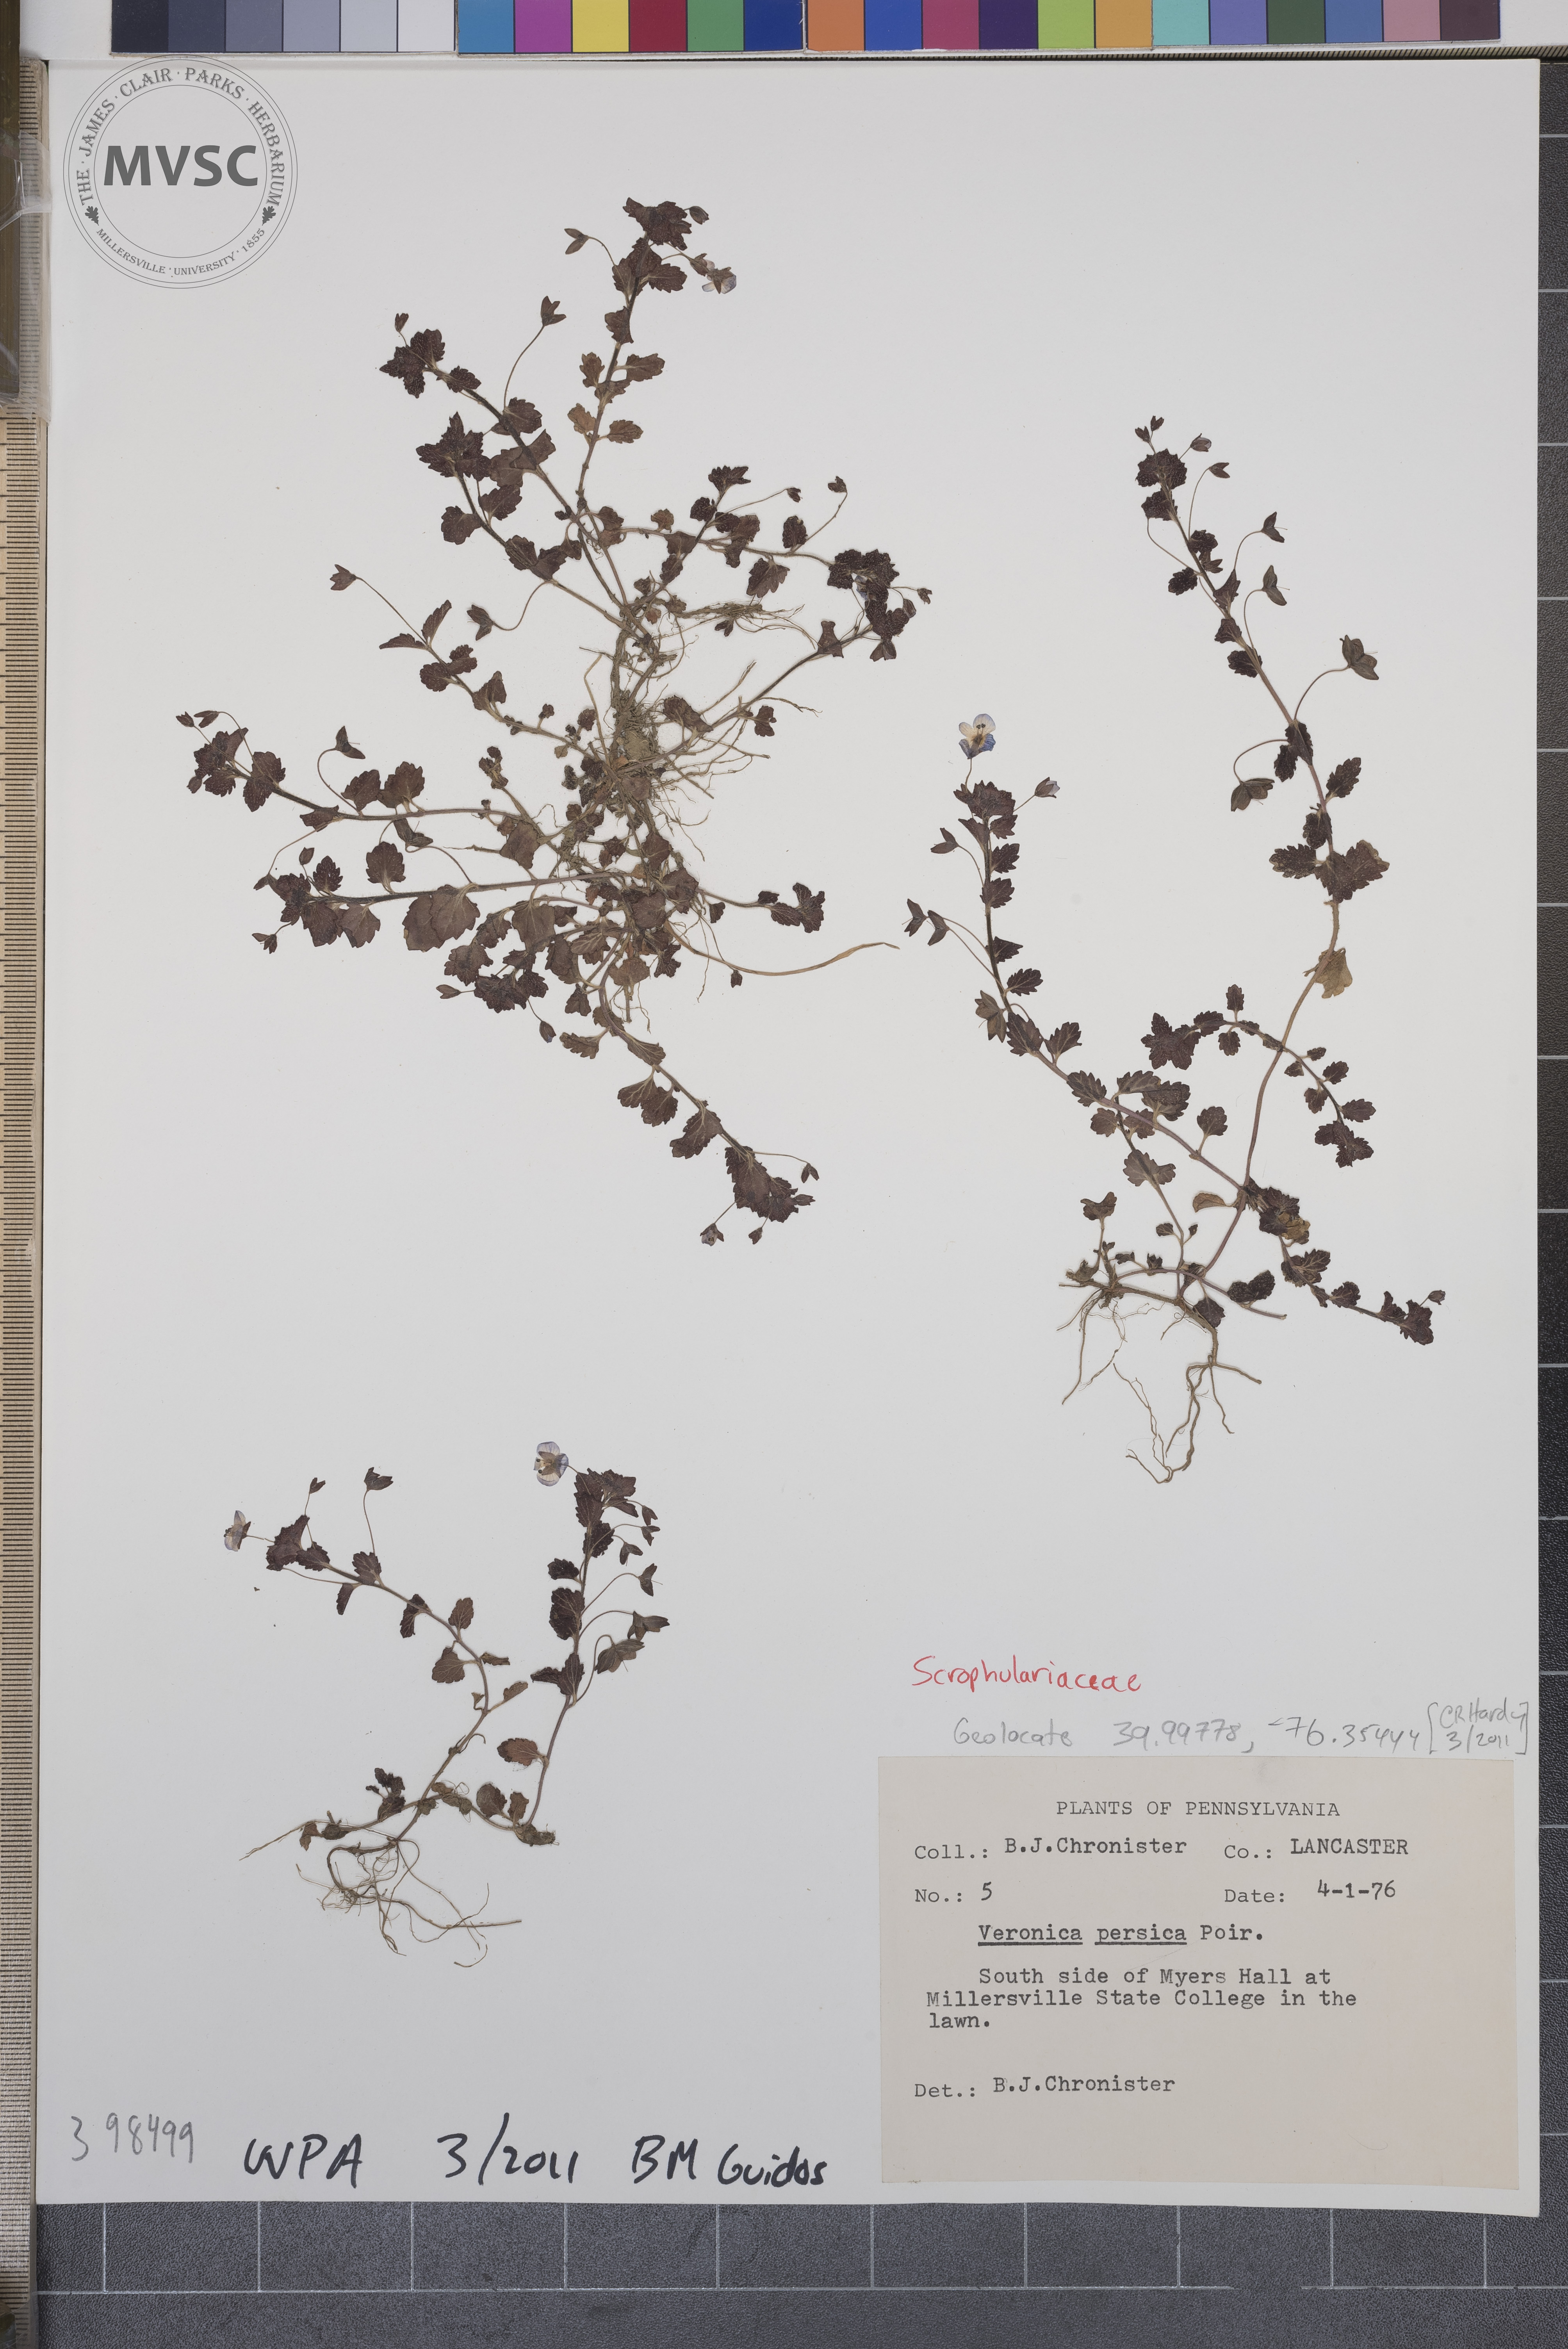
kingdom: Plantae
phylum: Tracheophyta
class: Magnoliopsida
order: Lamiales
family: Plantaginaceae
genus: Veronica
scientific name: Veronica persica
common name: Bird's-eye speedwell
